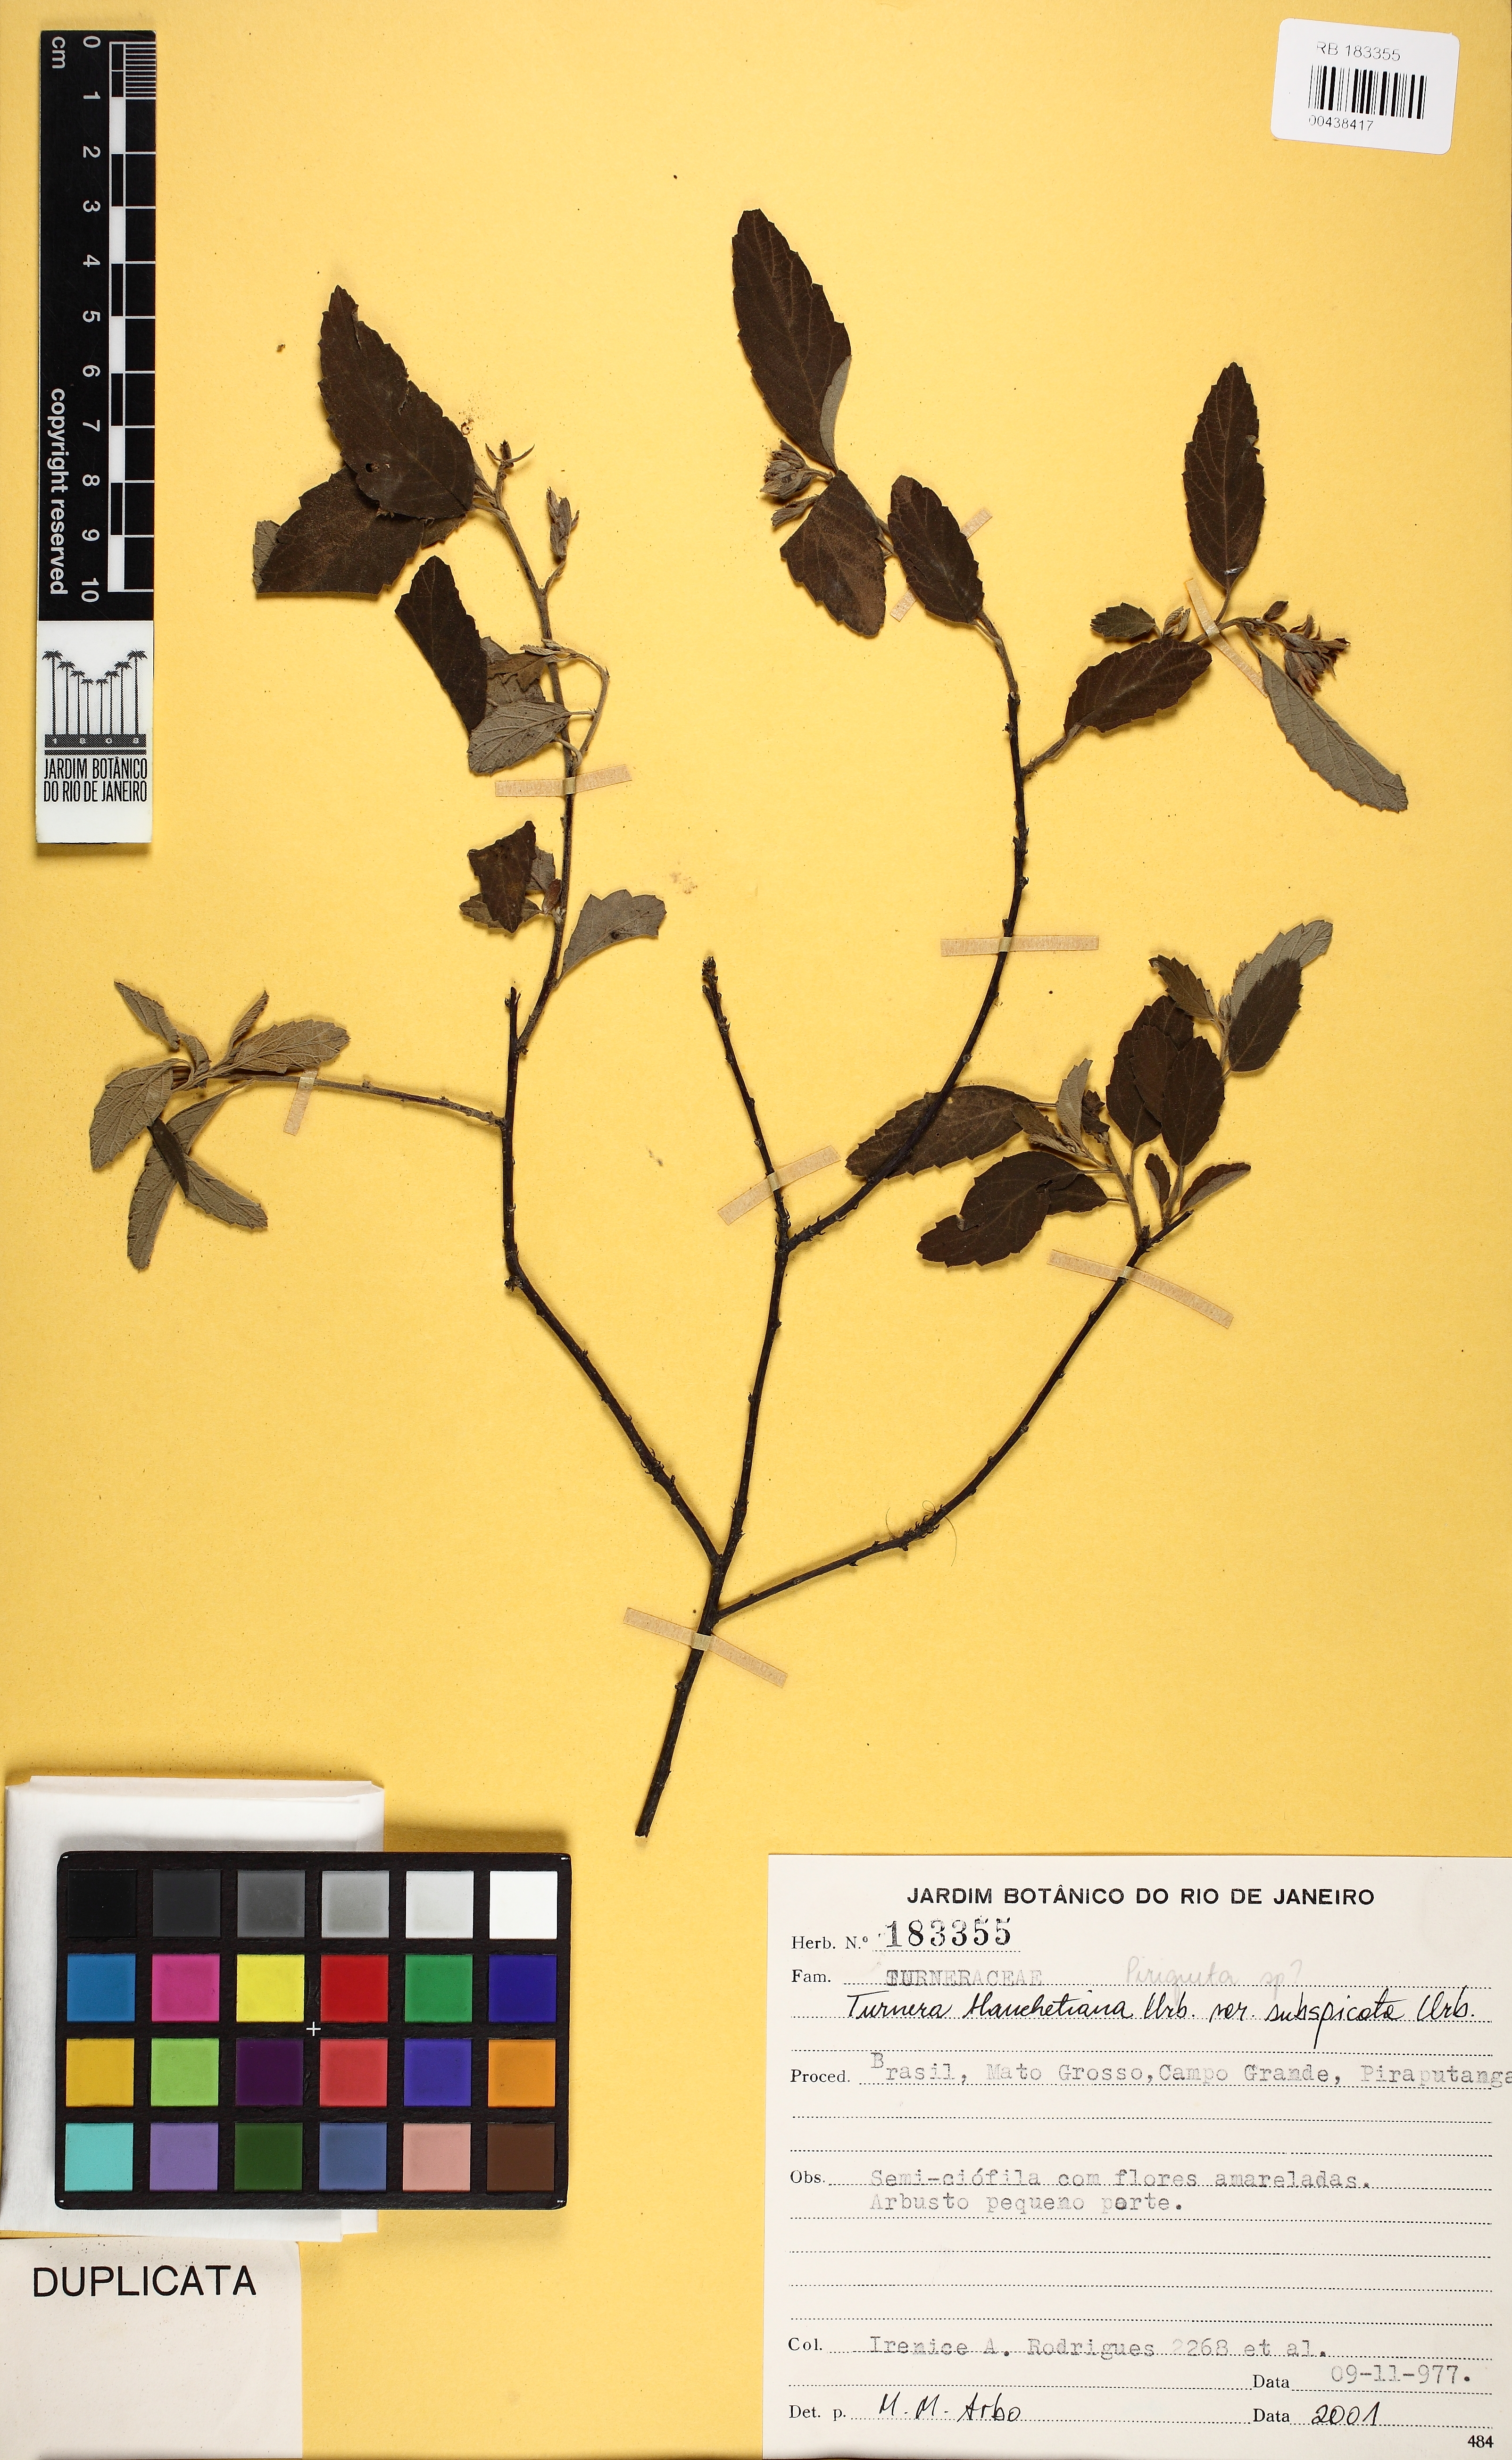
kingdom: Plantae
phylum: Tracheophyta
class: Magnoliopsida
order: Malpighiales
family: Turneraceae
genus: Turnera
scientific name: Turnera blanchetiana
